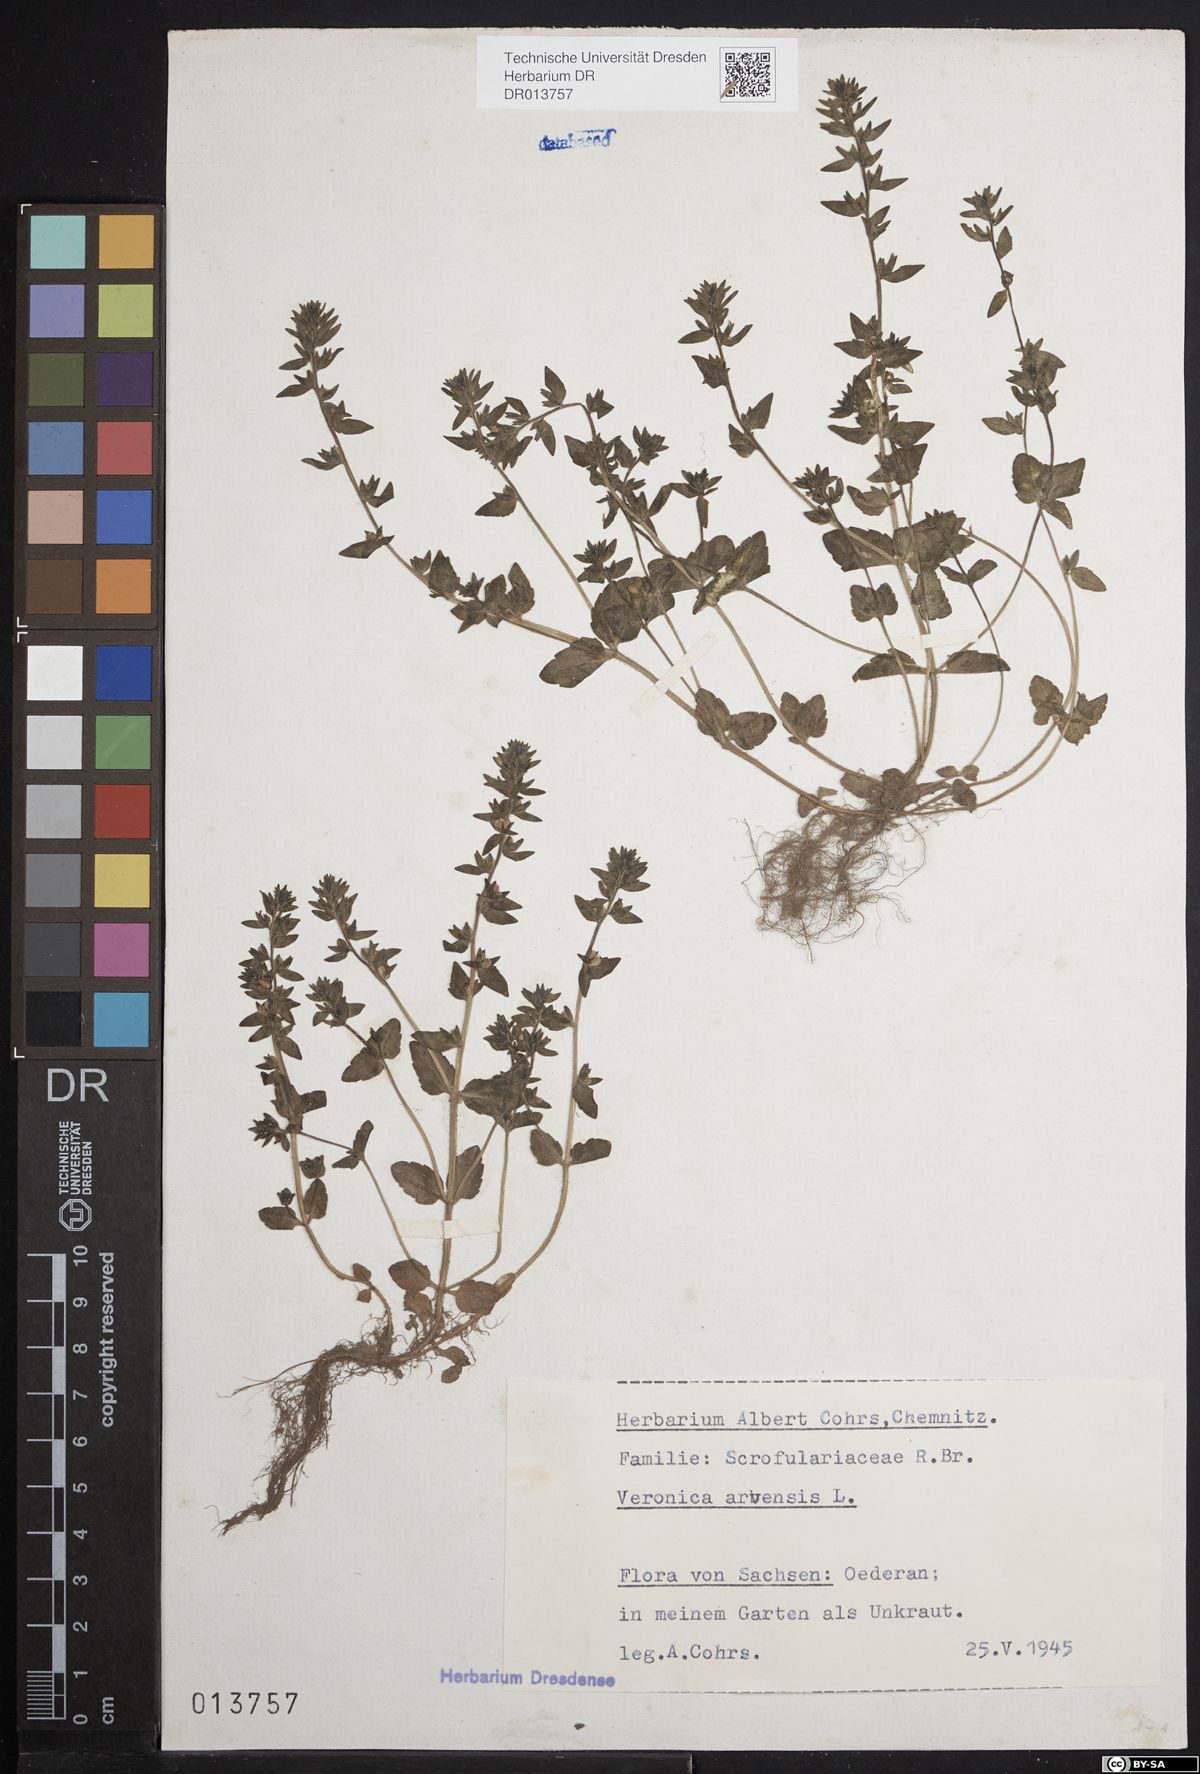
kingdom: Plantae
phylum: Tracheophyta
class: Magnoliopsida
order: Lamiales
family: Plantaginaceae
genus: Veronica
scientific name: Veronica arvensis
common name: Corn speedwell
